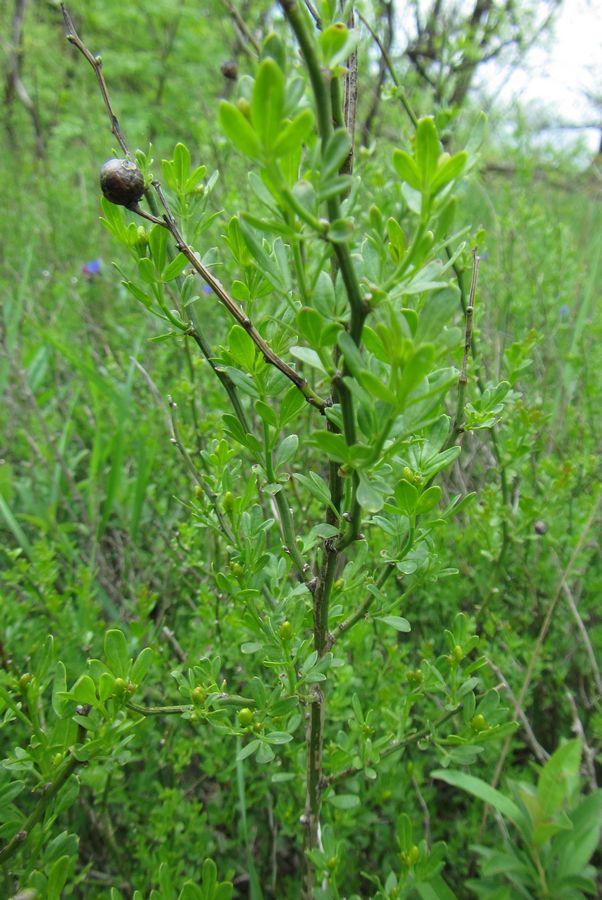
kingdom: Plantae
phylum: Tracheophyta
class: Magnoliopsida
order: Lamiales
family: Oleaceae
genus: Chrysojasminum
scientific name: Chrysojasminum fruticans
